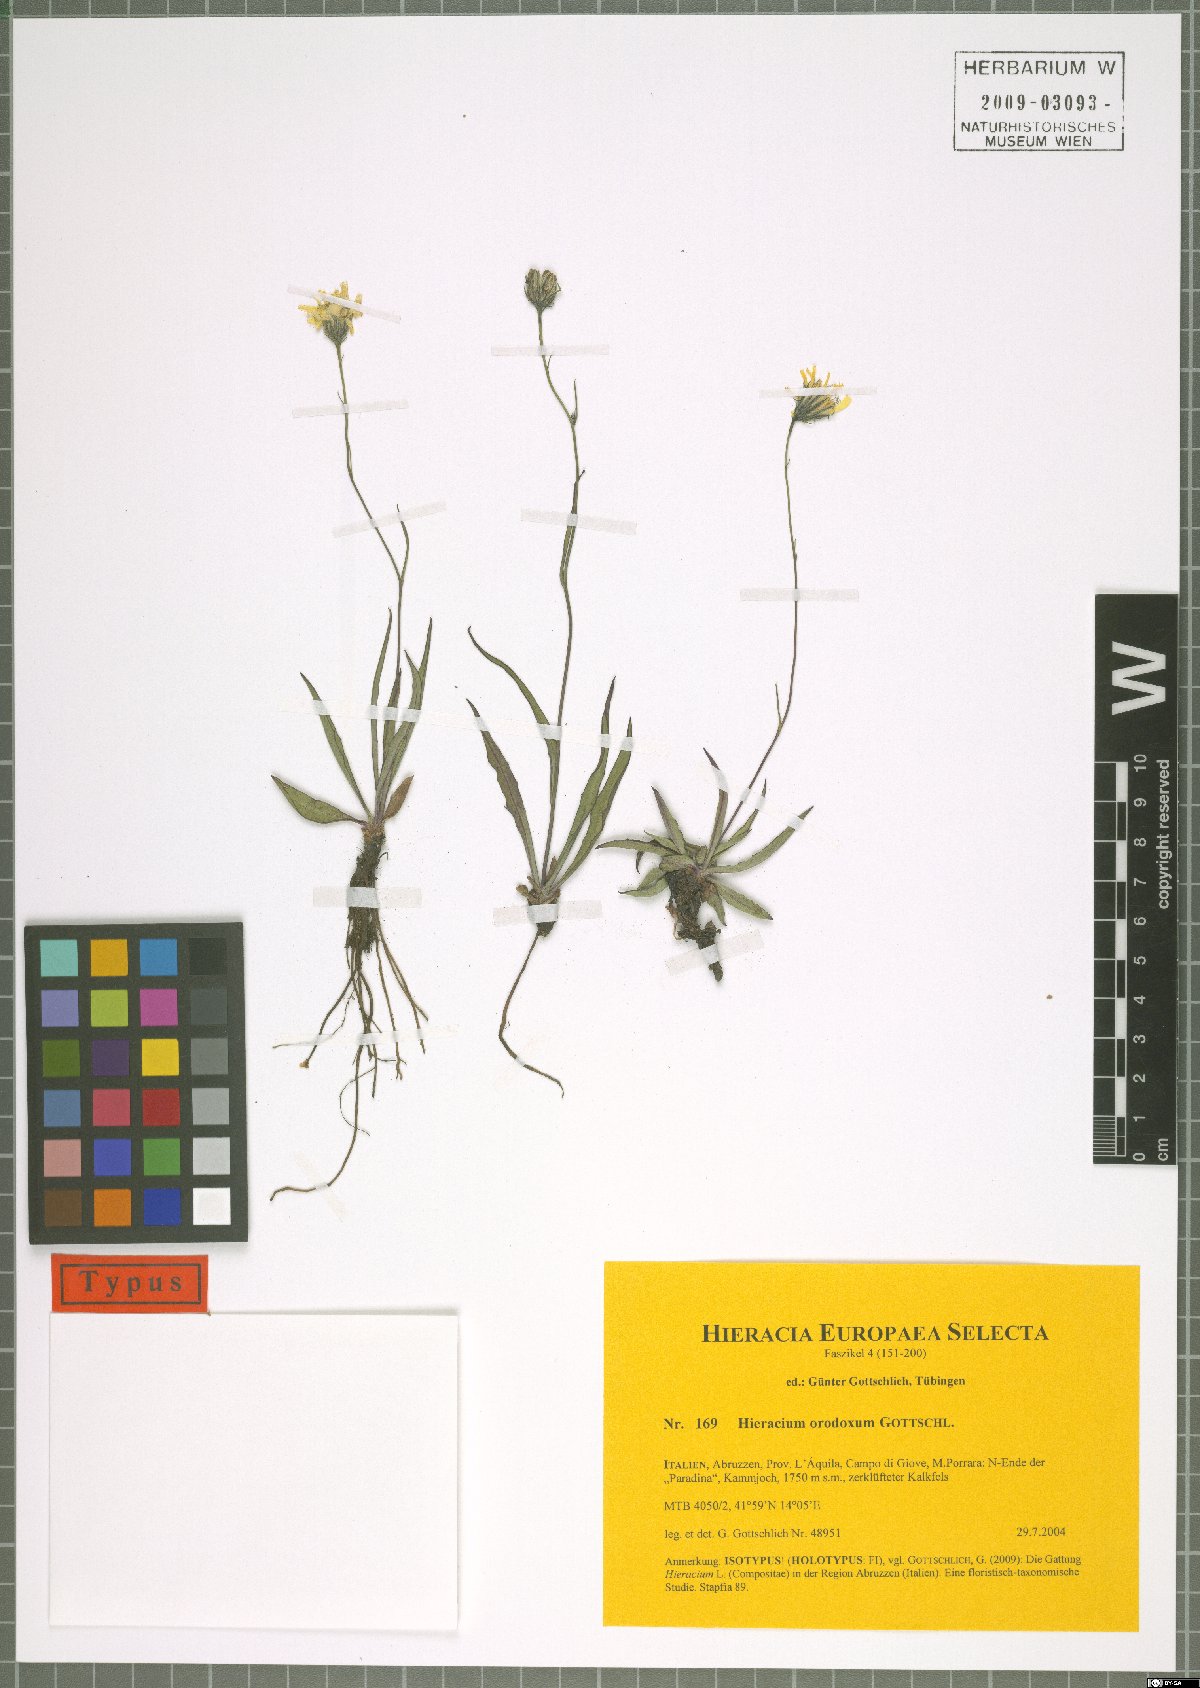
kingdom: Plantae
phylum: Tracheophyta
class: Magnoliopsida
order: Asterales
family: Asteraceae
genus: Hieracium
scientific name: Hieracium orodoxum
